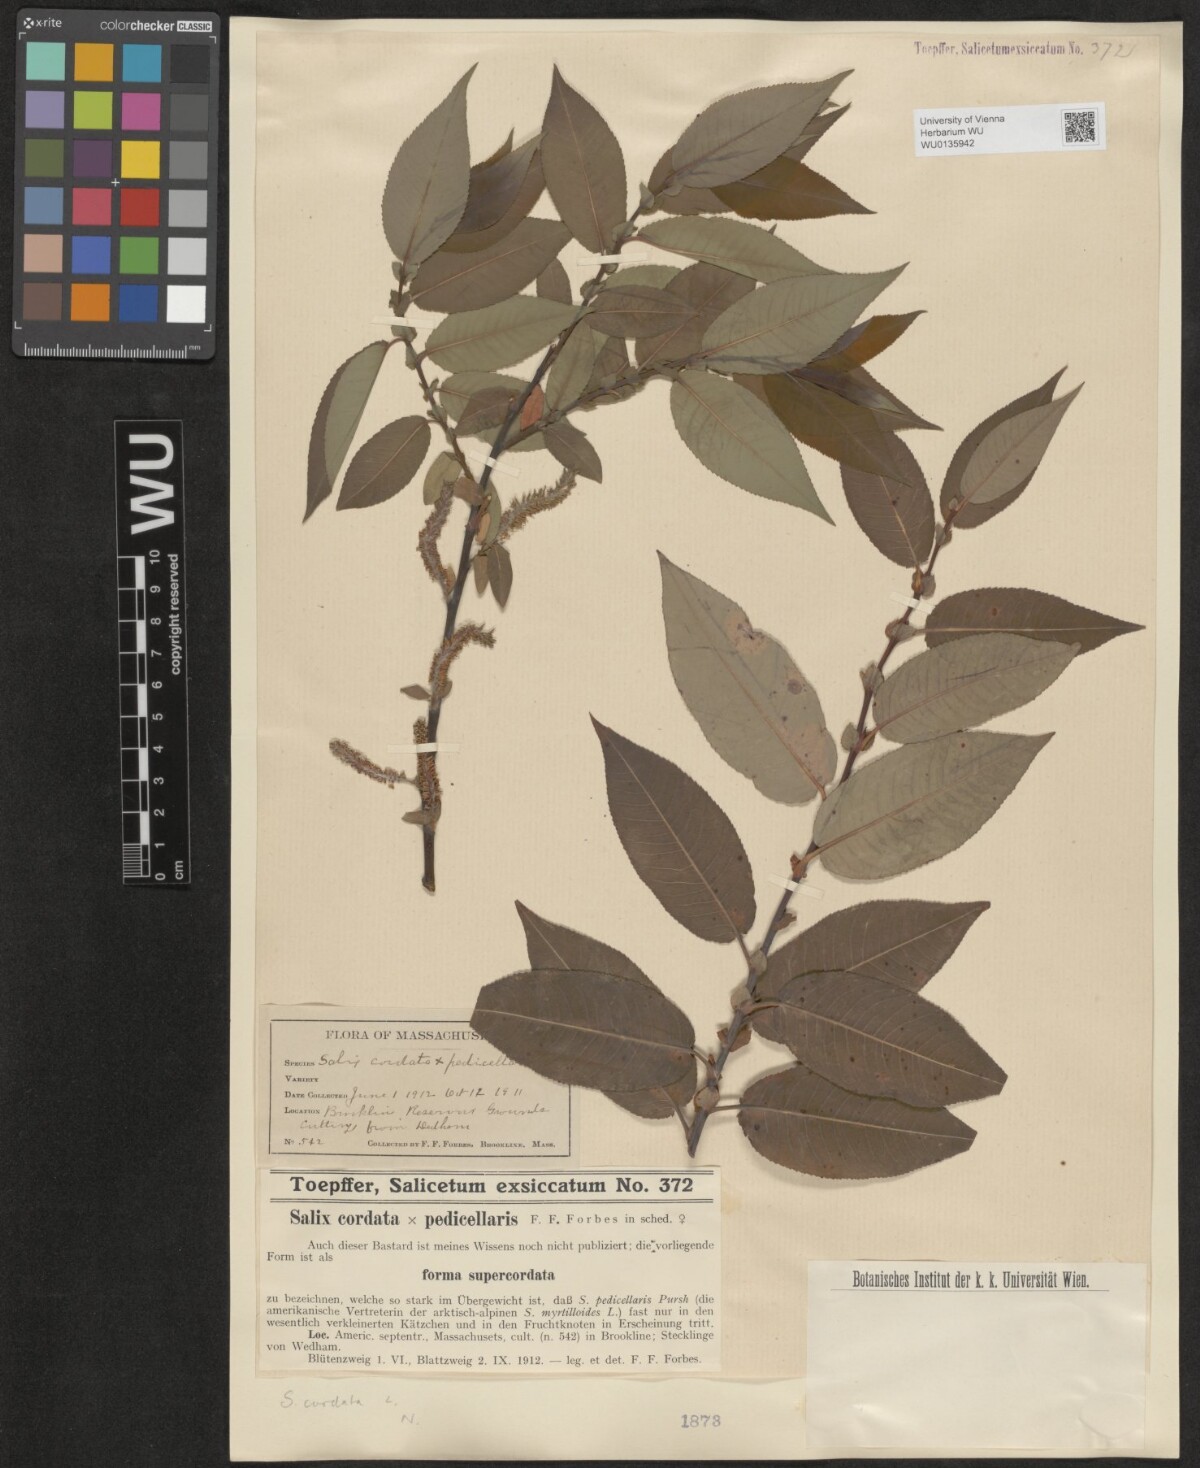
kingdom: Plantae
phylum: Tracheophyta
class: Magnoliopsida
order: Malpighiales
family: Salicaceae
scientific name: Salicaceae
